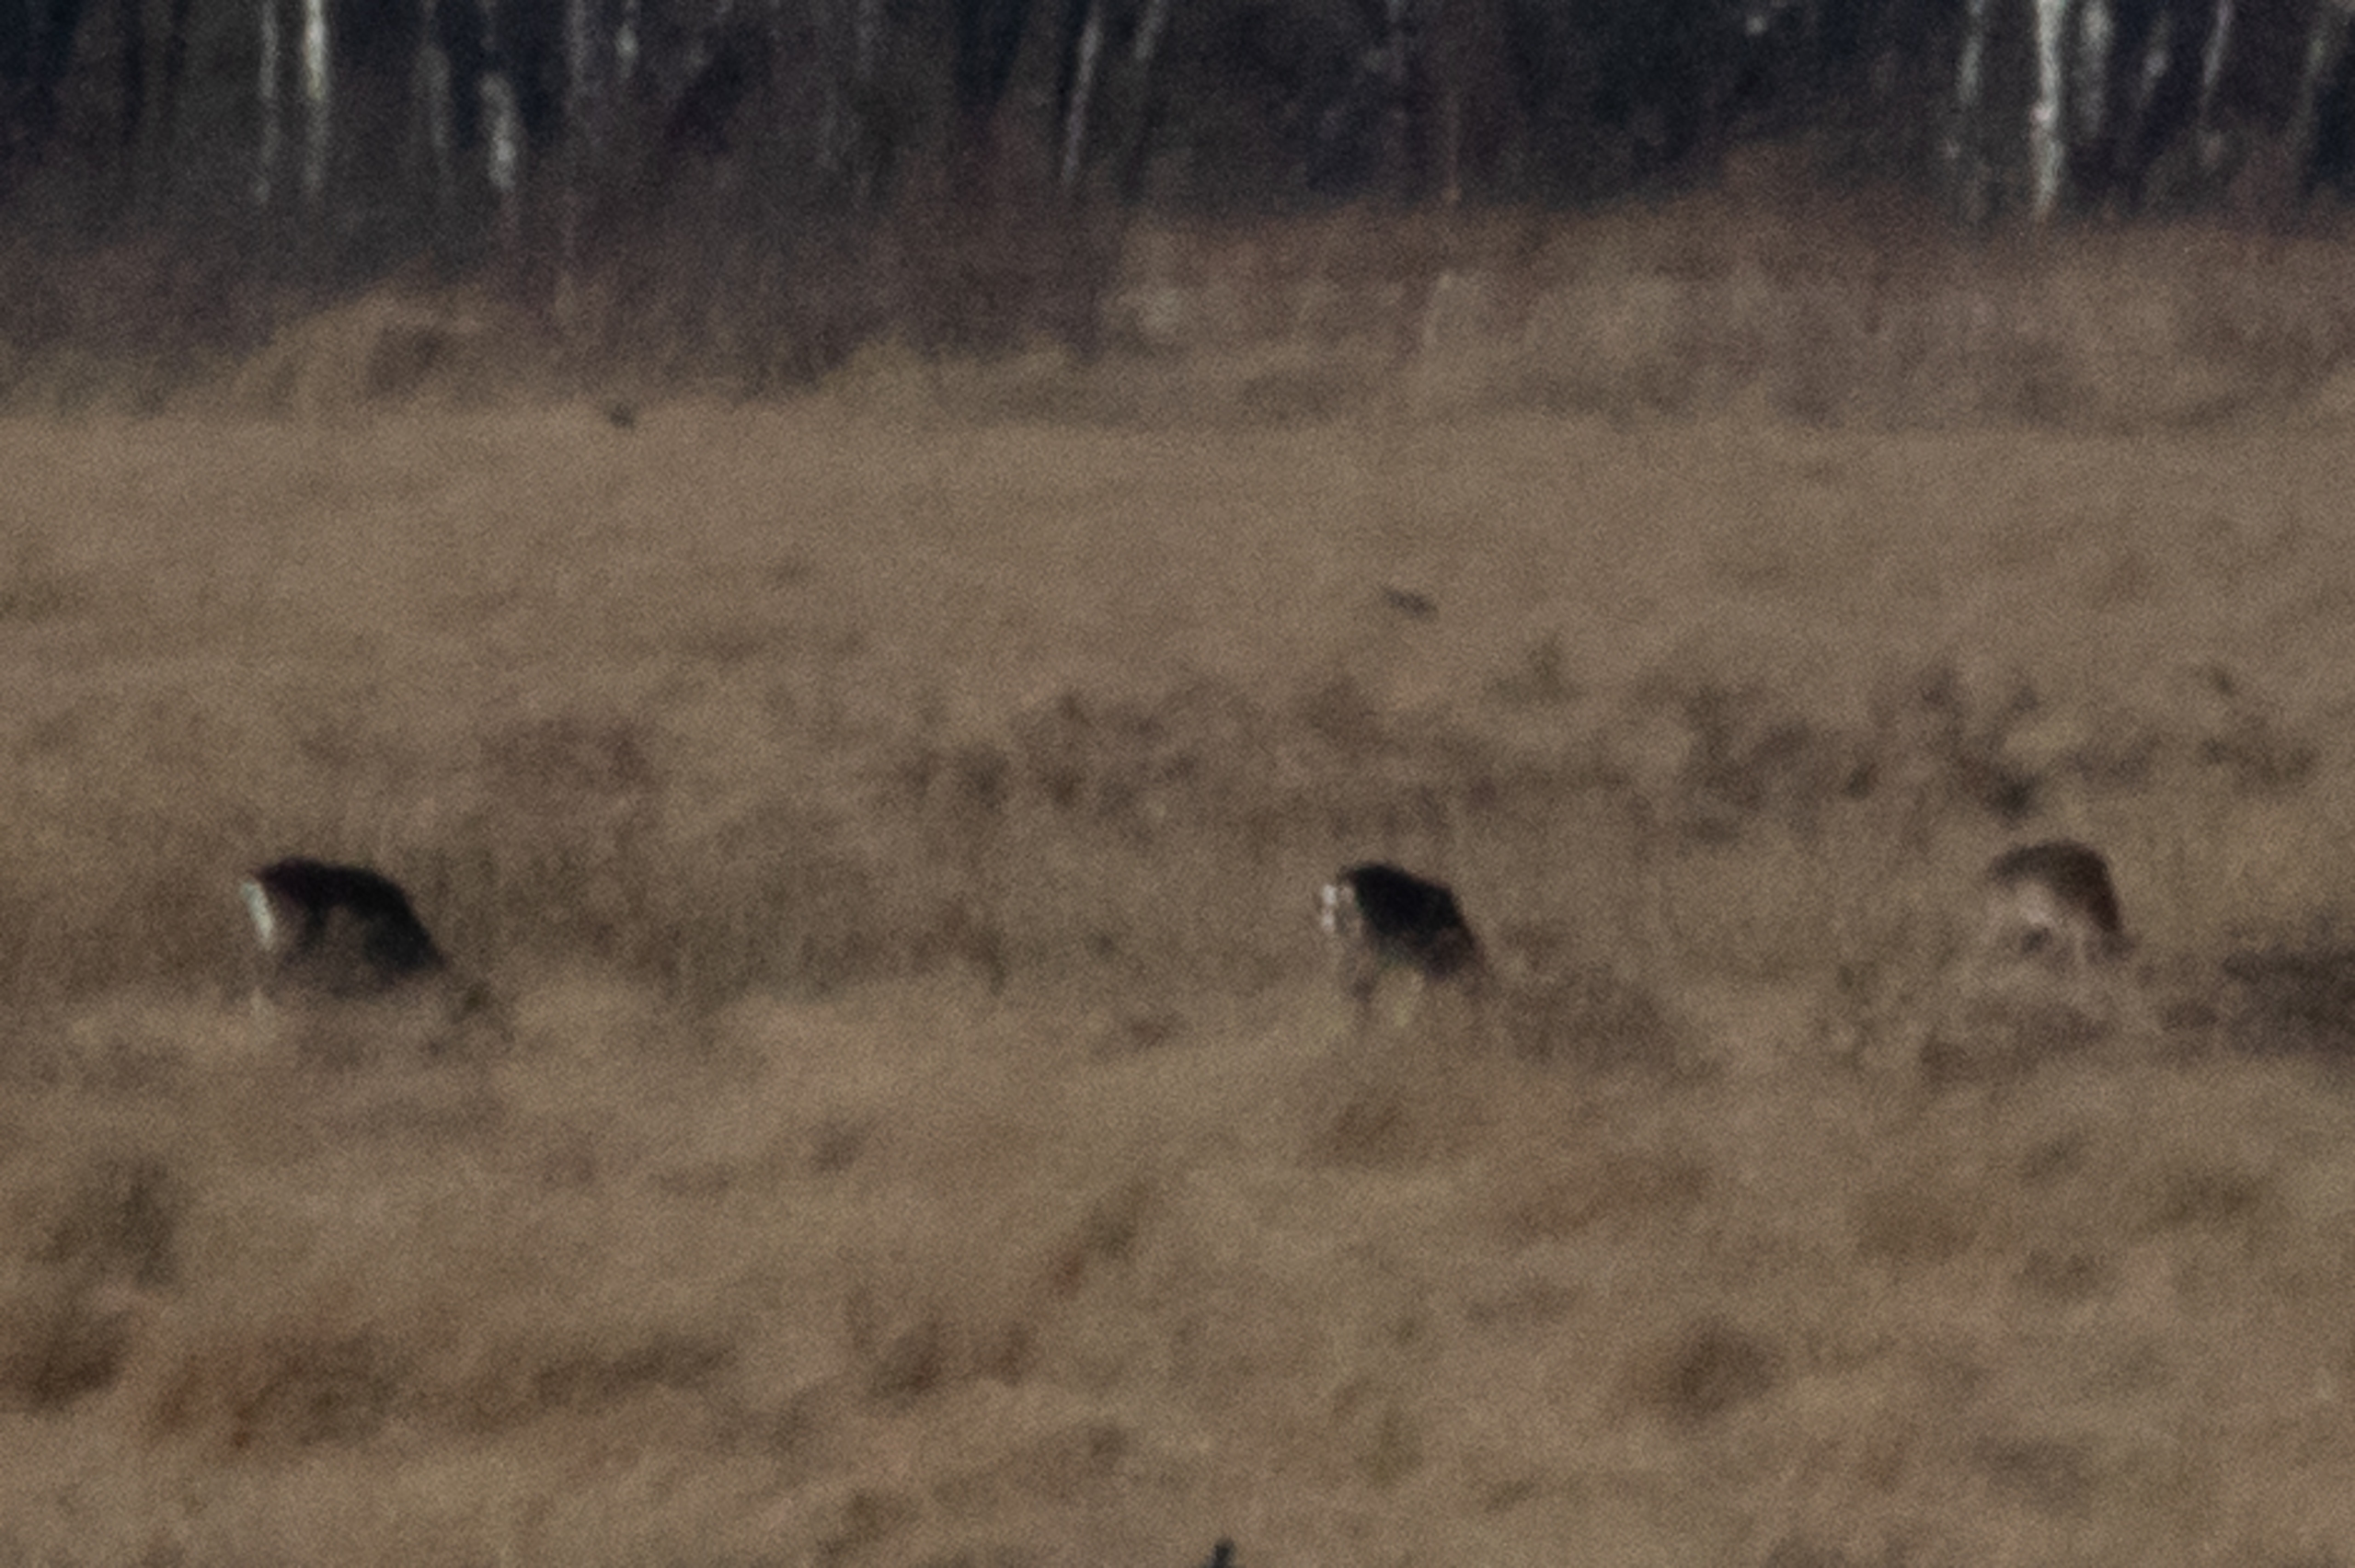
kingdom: Animalia
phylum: Chordata
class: Mammalia
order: Artiodactyla
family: Cervidae
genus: Capreolus
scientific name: Capreolus capreolus
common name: Rådyr
